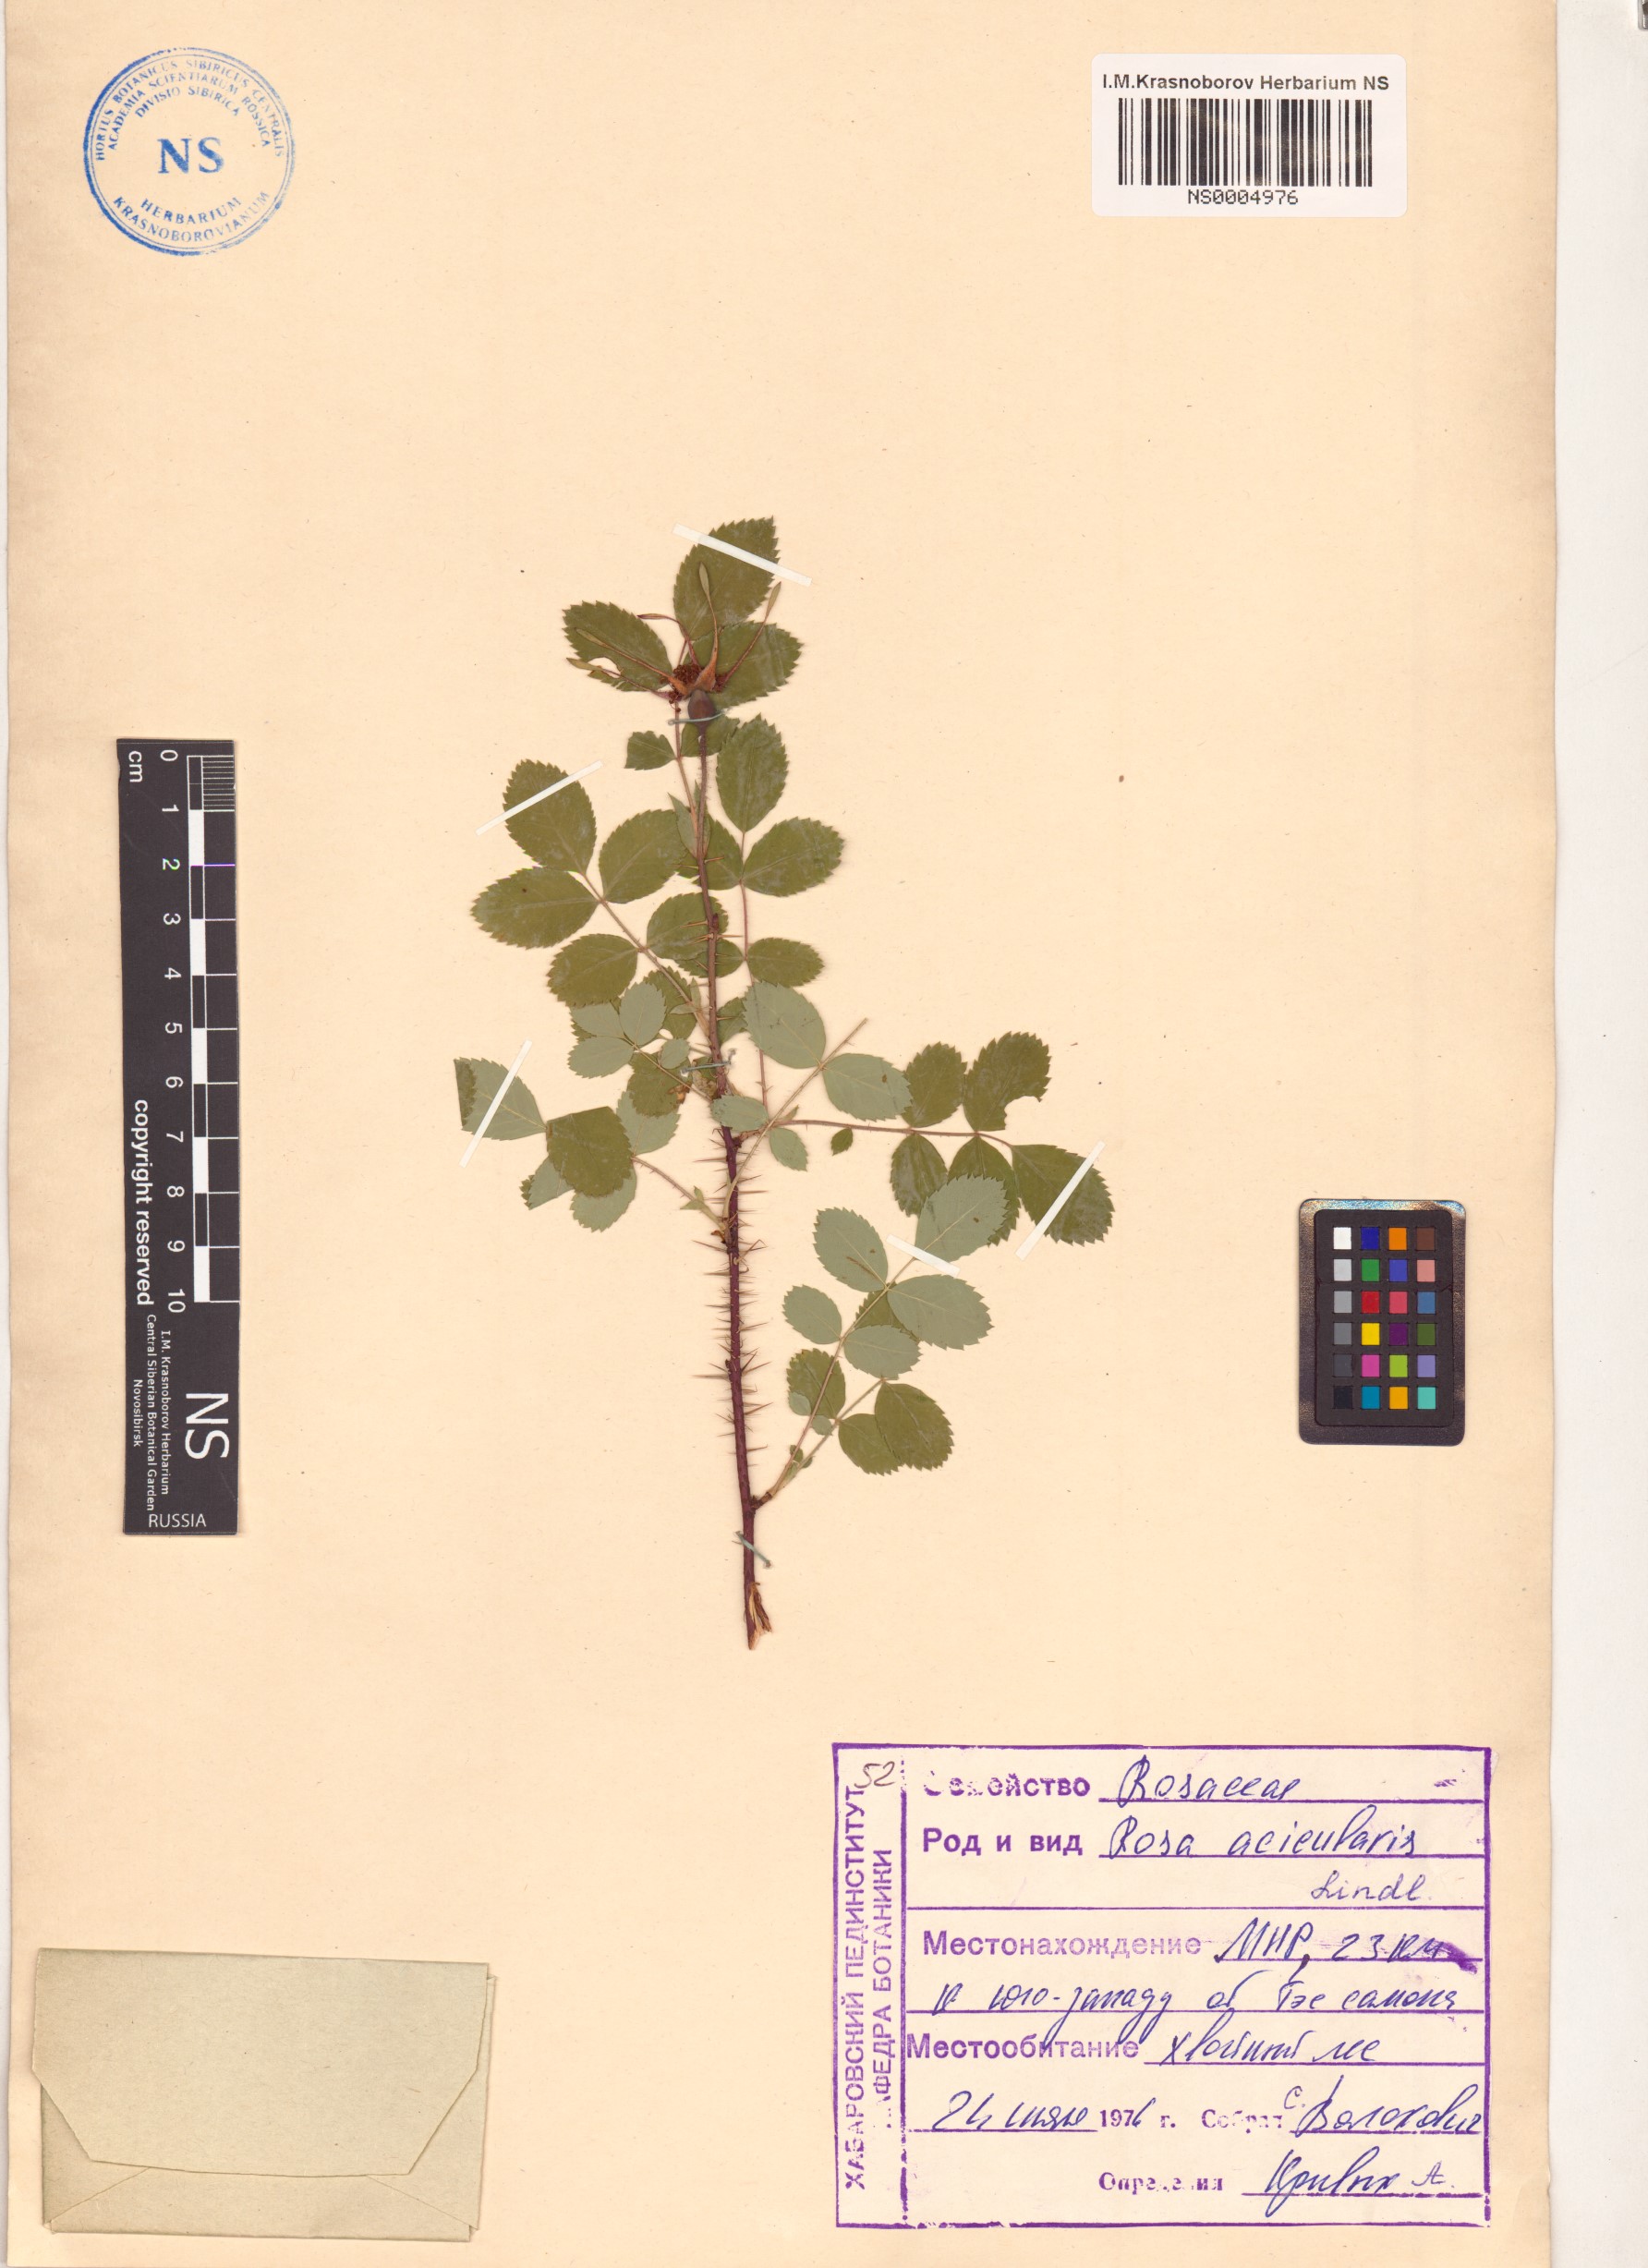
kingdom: Plantae
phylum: Tracheophyta
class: Magnoliopsida
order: Rosales
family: Rosaceae
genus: Rosa
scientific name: Rosa acicularis
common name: Prickly rose
